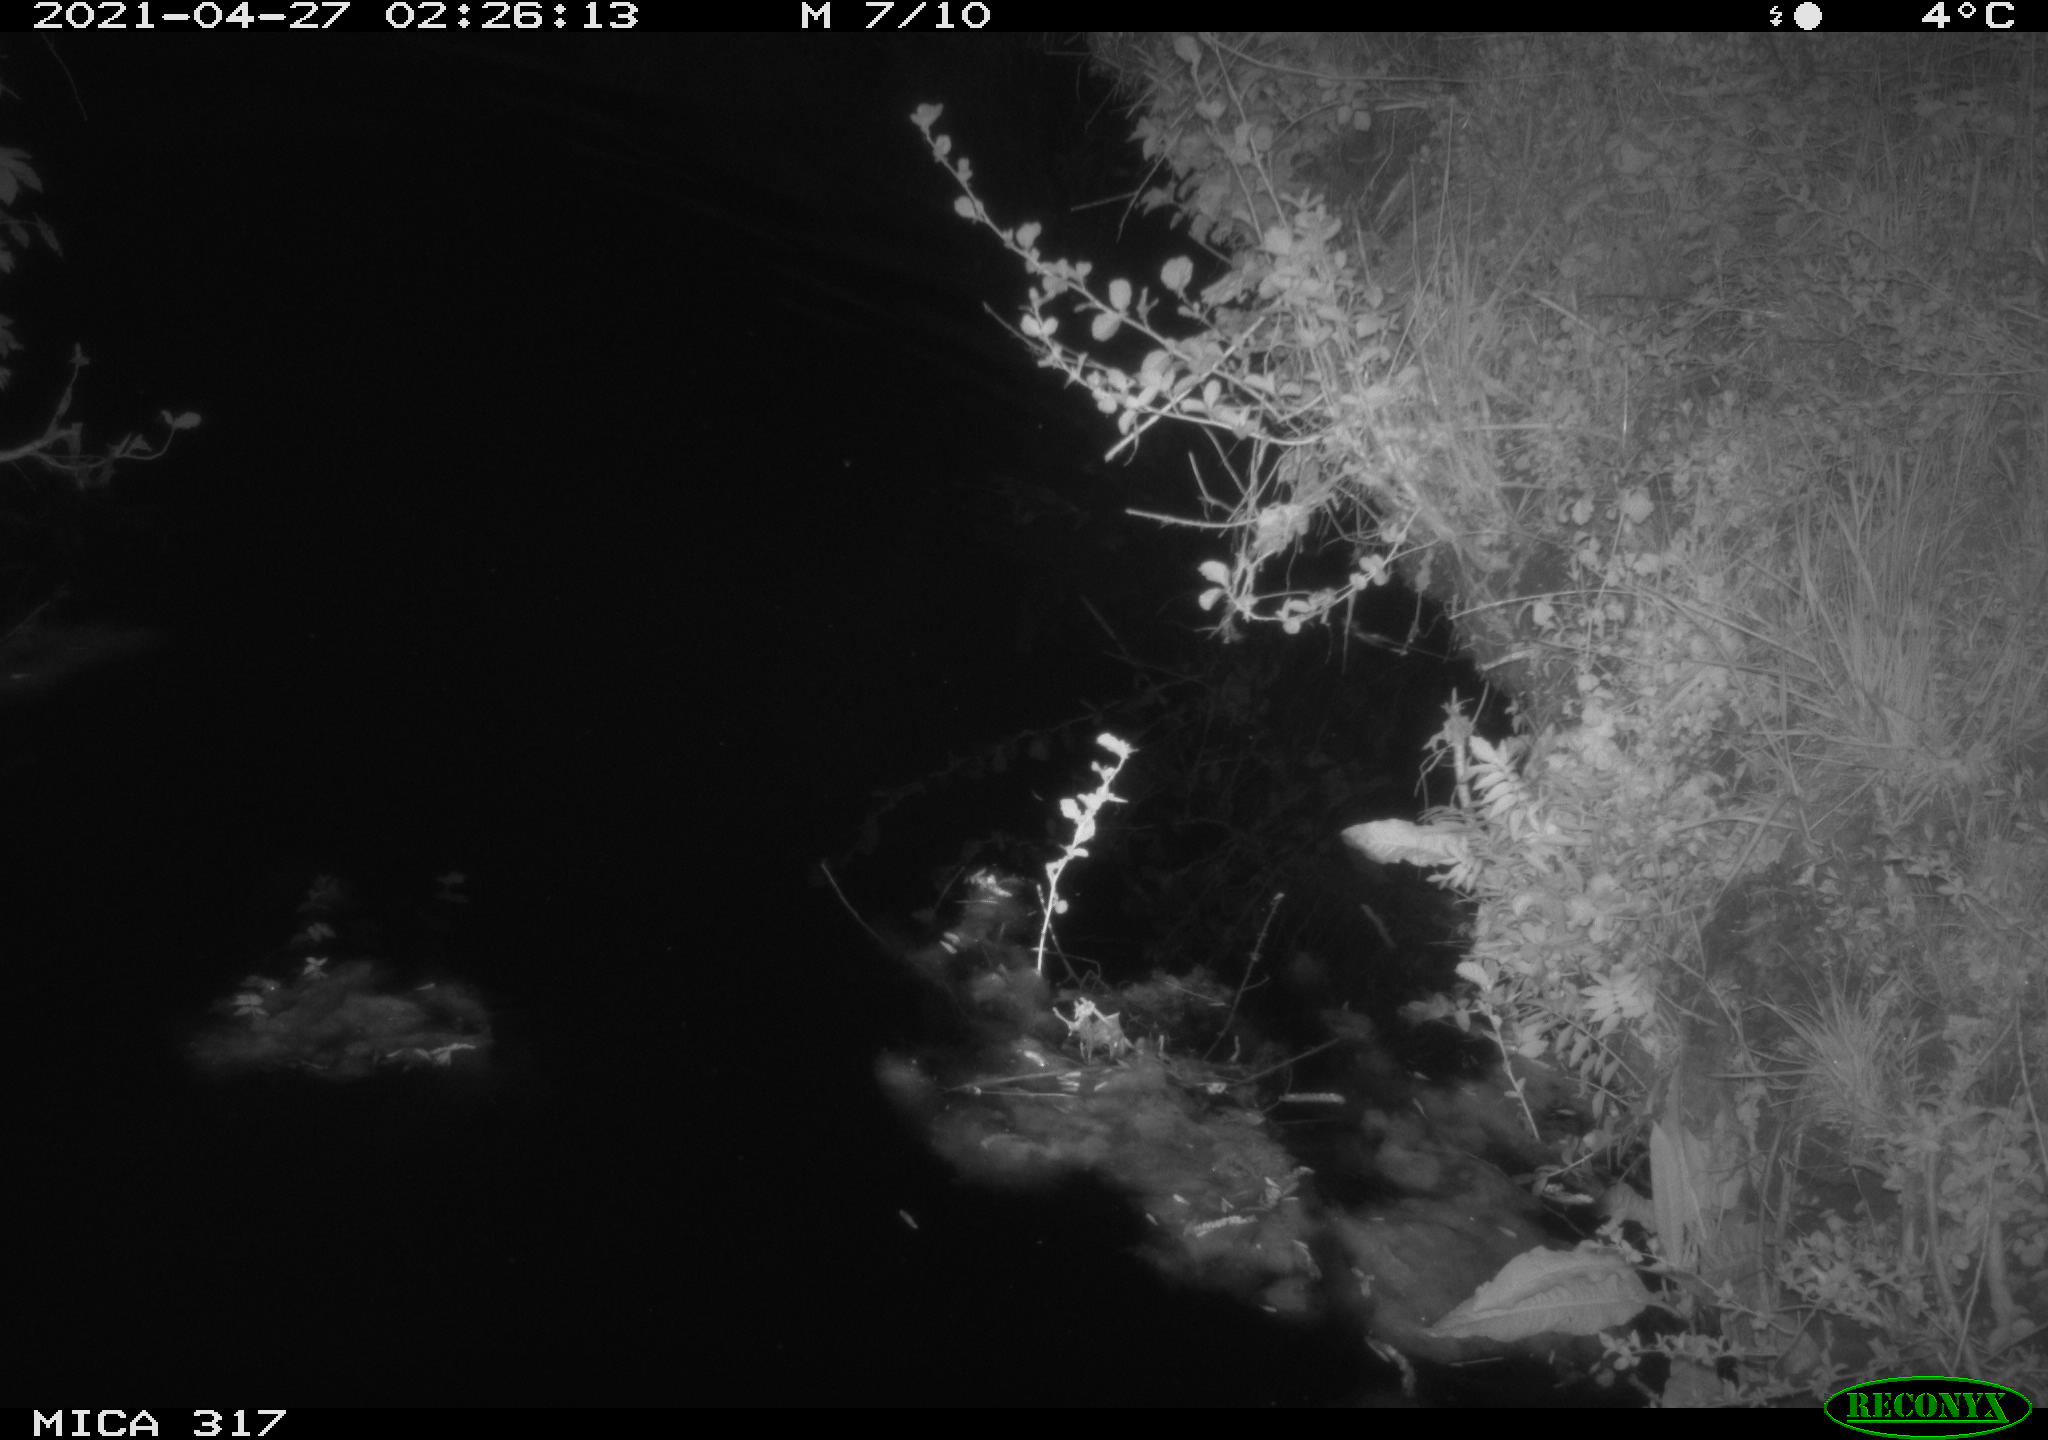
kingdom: Animalia
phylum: Chordata
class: Aves
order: Anseriformes
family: Anatidae
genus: Anas
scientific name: Anas
